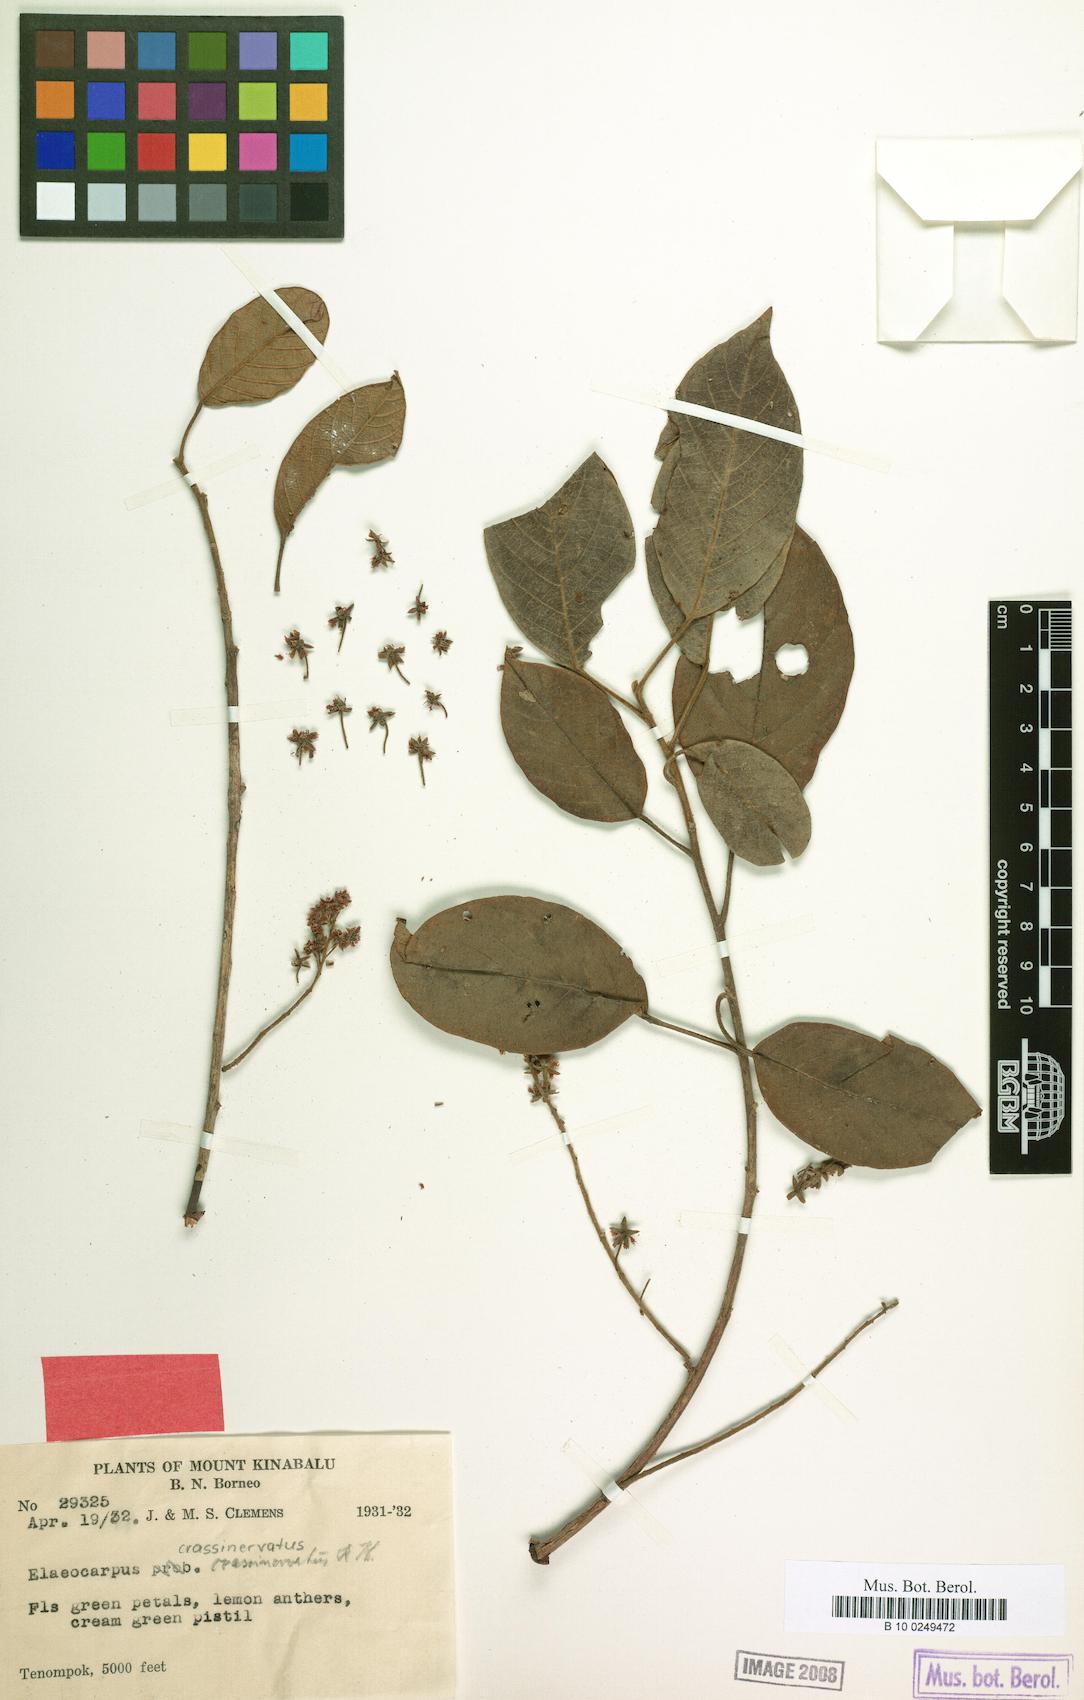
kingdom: Plantae
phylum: Tracheophyta
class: Magnoliopsida
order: Oxalidales
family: Elaeocarpaceae
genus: Elaeocarpus
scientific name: Elaeocarpus crassinervatus
